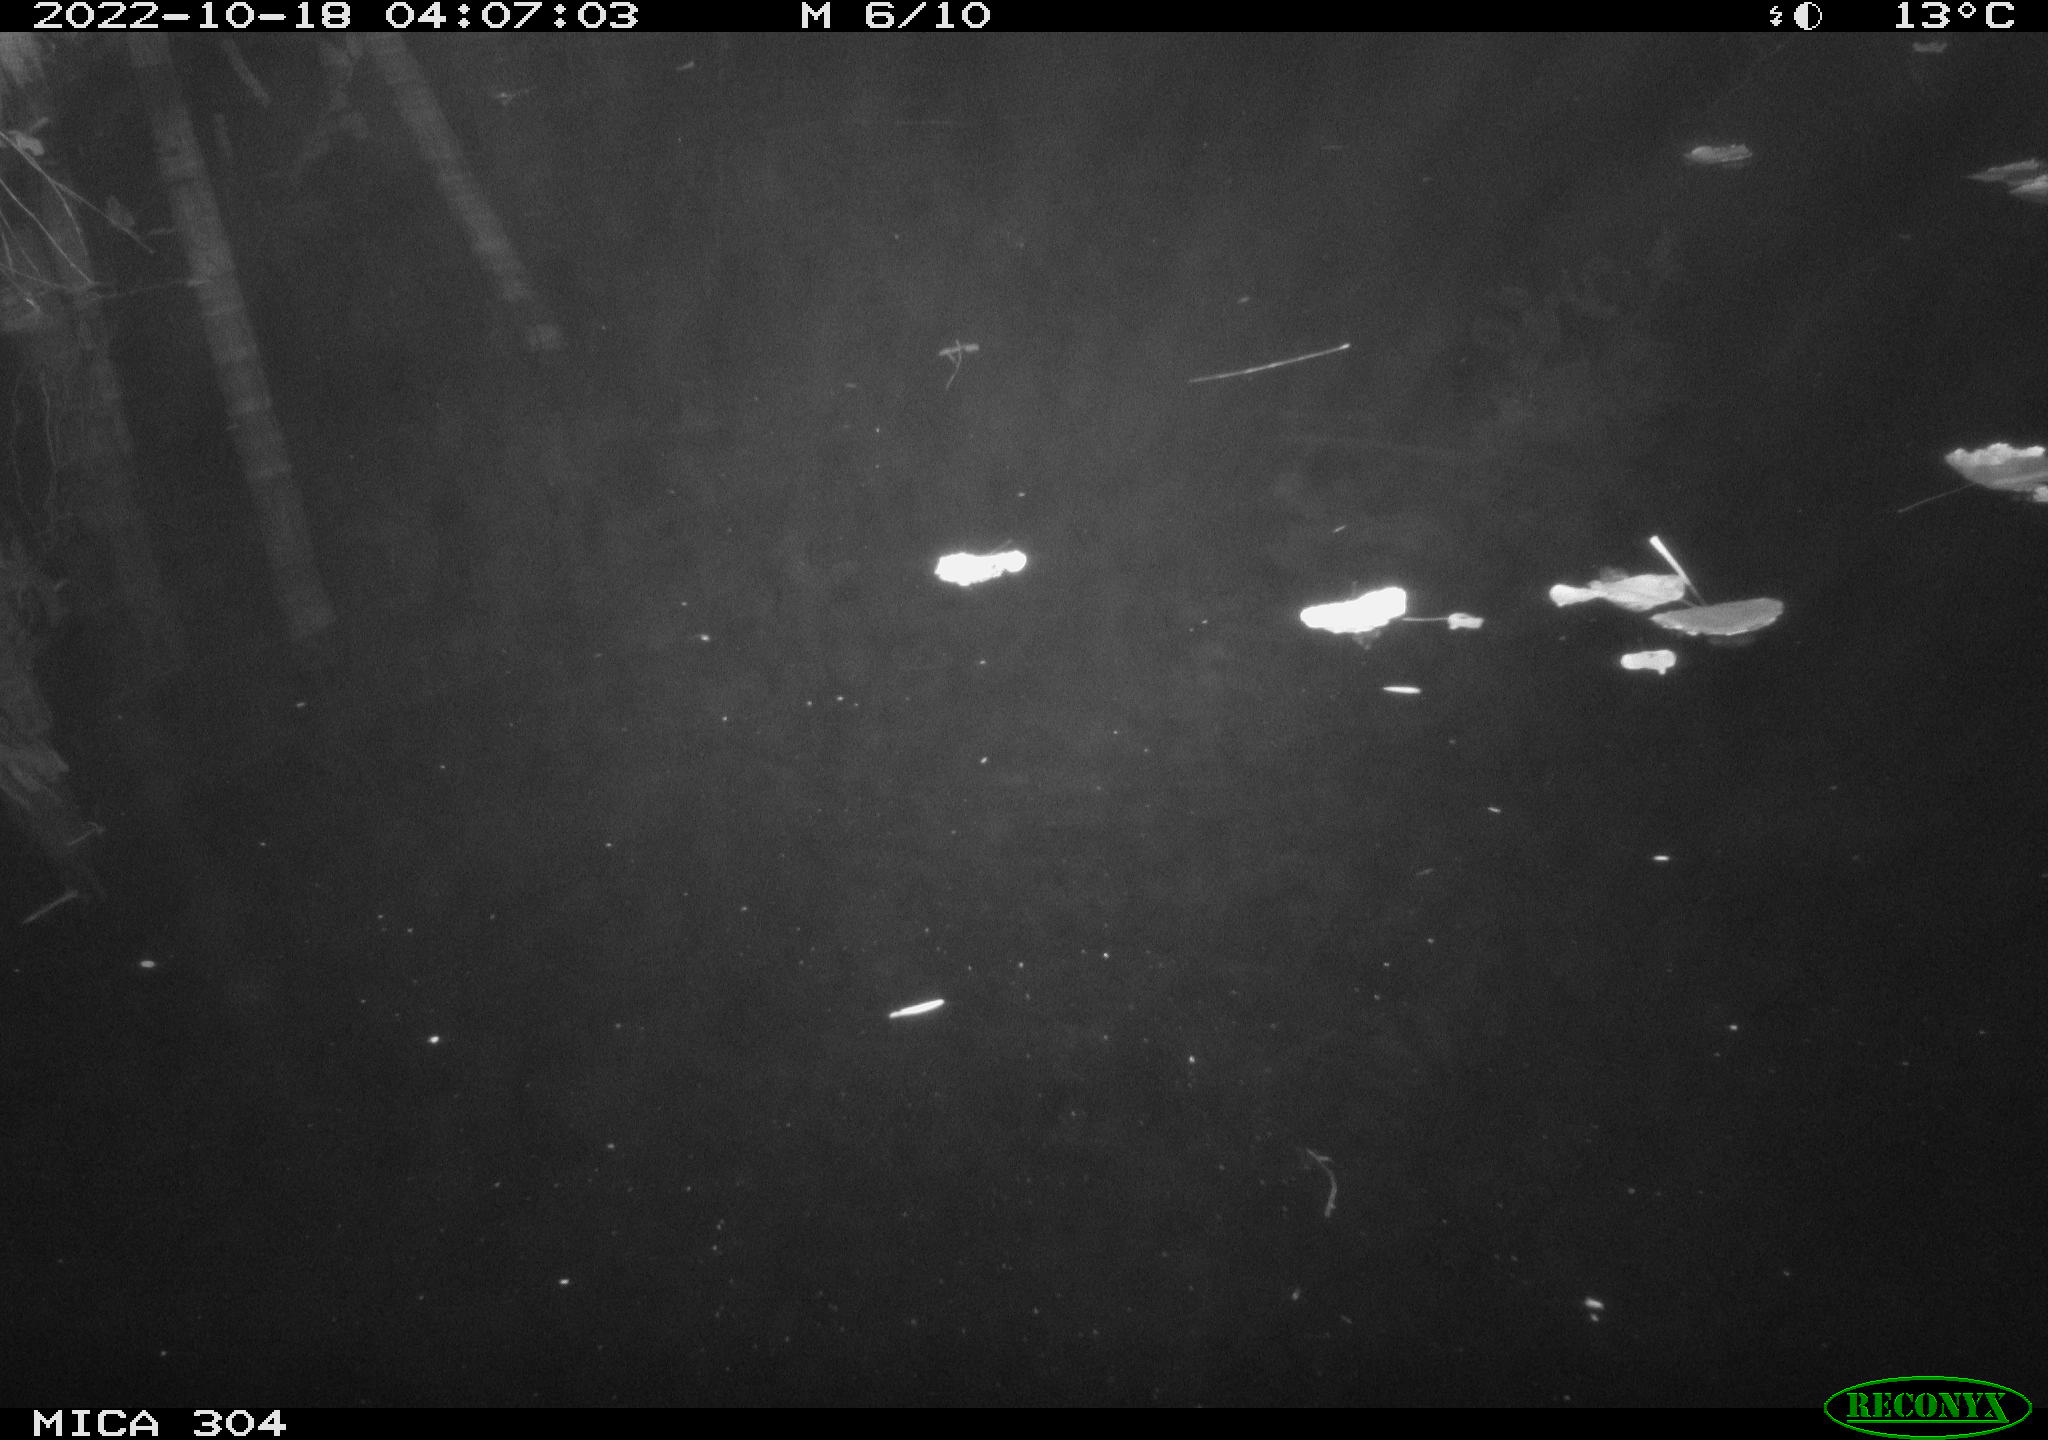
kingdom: Animalia
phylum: Chordata
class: Mammalia
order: Rodentia
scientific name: Rodentia
